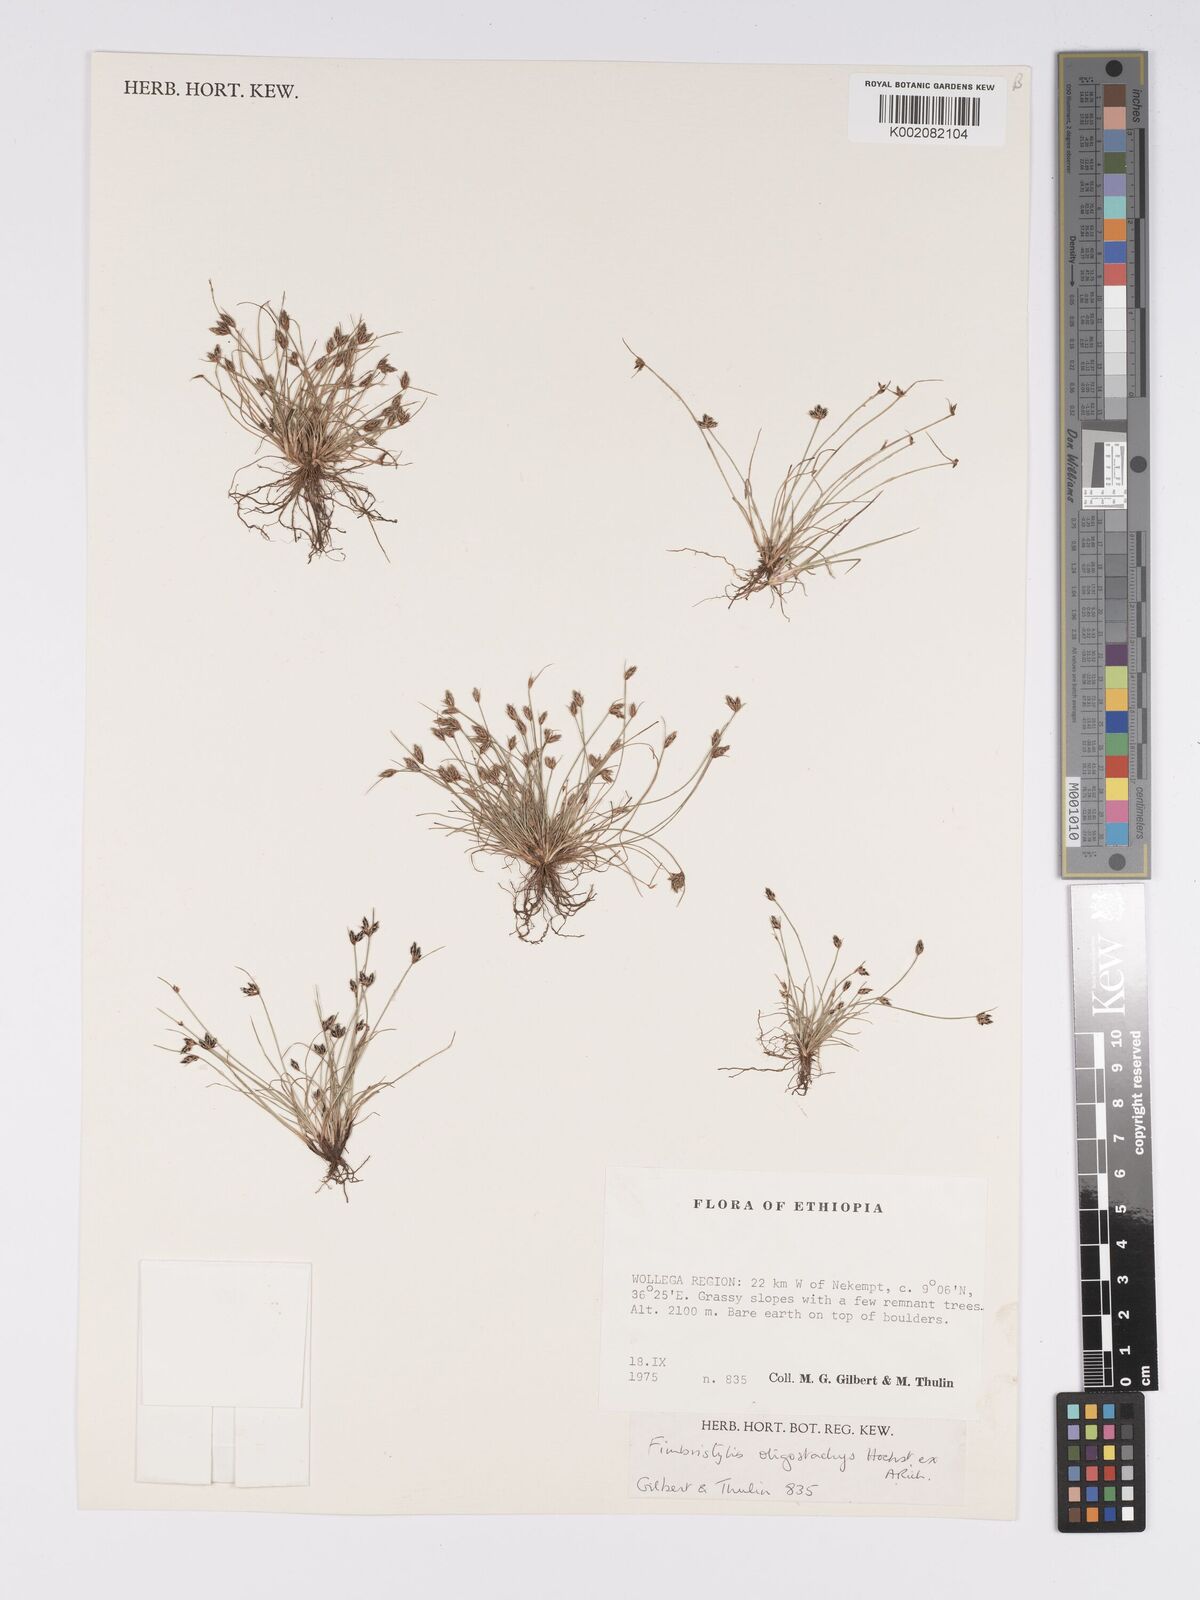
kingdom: Plantae
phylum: Tracheophyta
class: Liliopsida
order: Poales
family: Cyperaceae
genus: Bulbostylis
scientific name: Bulbostylis hispidula
